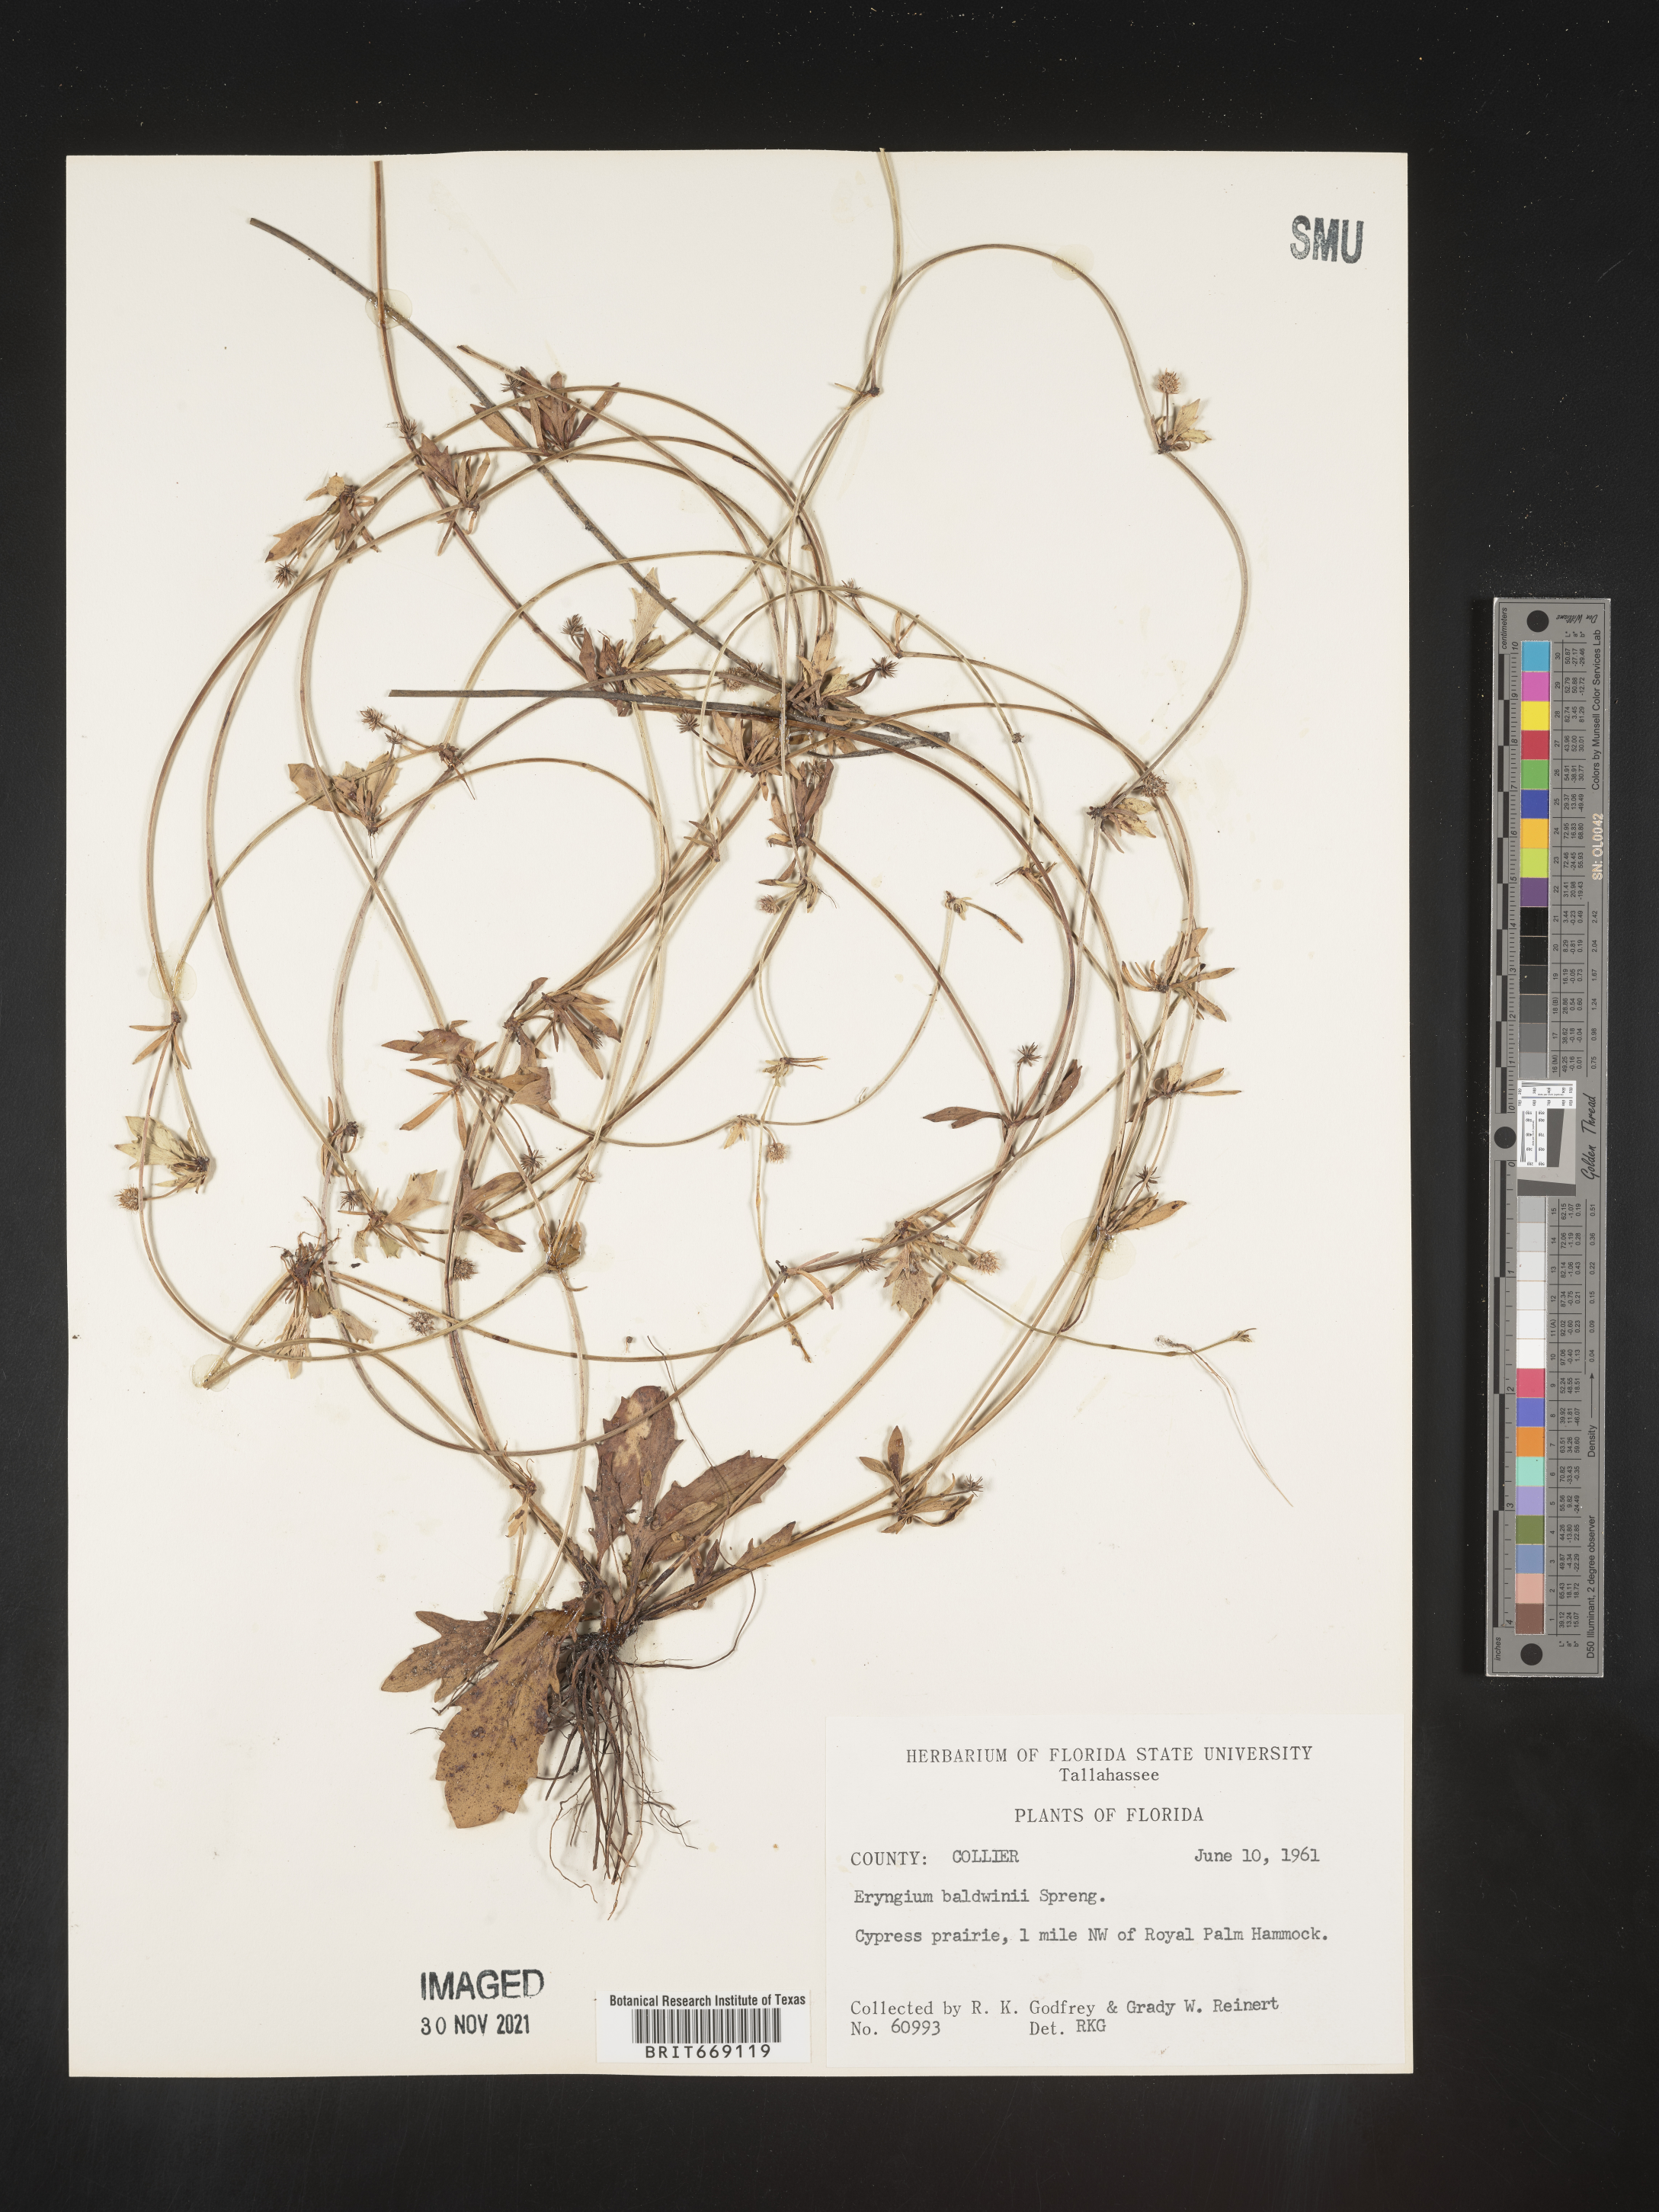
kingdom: Plantae
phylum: Tracheophyta
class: Magnoliopsida
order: Apiales
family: Apiaceae
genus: Eryngium
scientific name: Eryngium baldwinii
